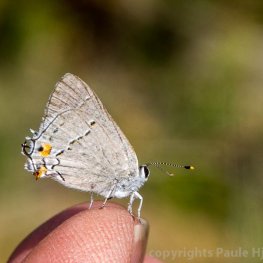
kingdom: Animalia
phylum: Arthropoda
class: Insecta
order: Lepidoptera
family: Lycaenidae
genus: Strymon
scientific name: Strymon melinus
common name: Gray Hairstreak
